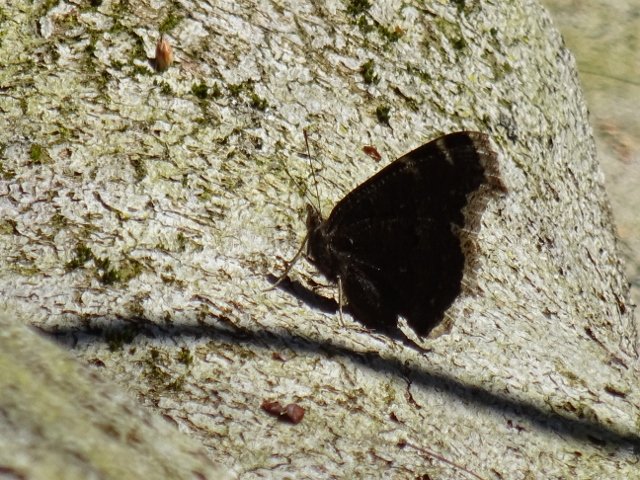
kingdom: Animalia
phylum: Arthropoda
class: Insecta
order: Lepidoptera
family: Nymphalidae
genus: Nymphalis
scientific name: Nymphalis antiopa
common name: Mourning Cloak
